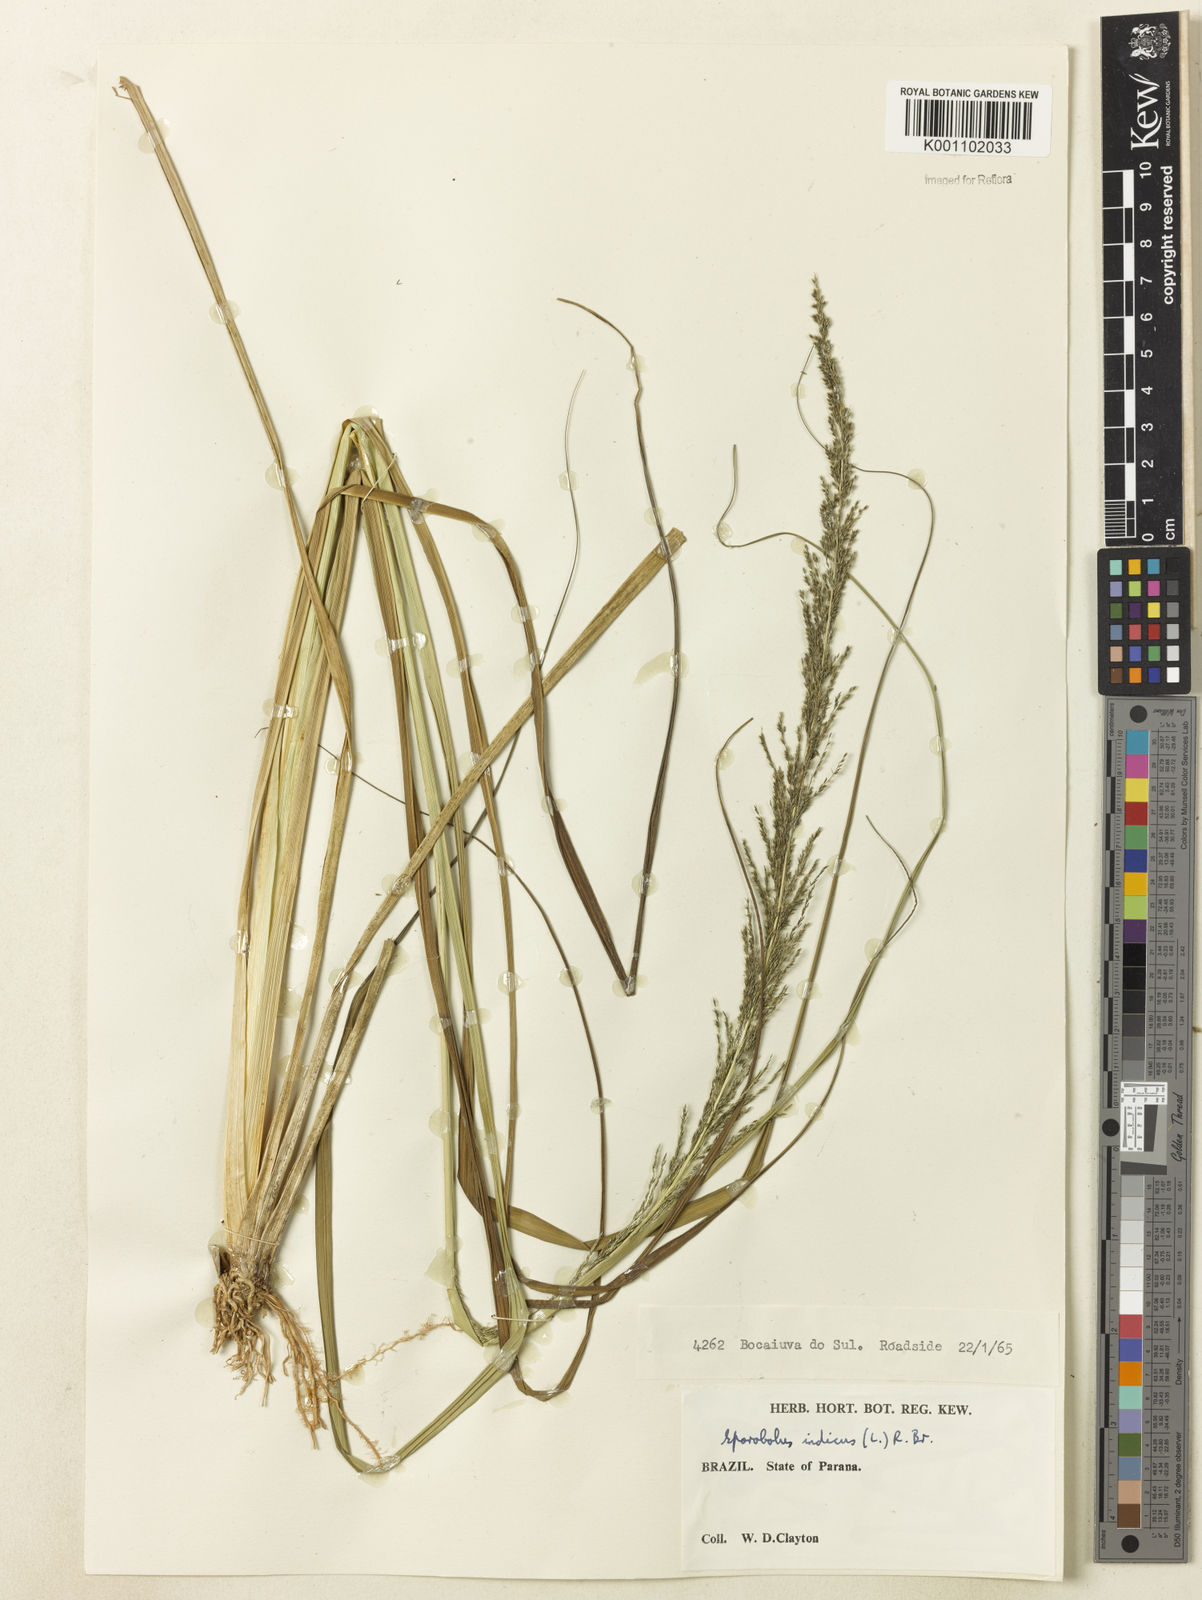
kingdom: Plantae
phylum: Tracheophyta
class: Liliopsida
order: Poales
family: Poaceae
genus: Sporobolus
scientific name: Sporobolus indicus
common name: Smut grass
